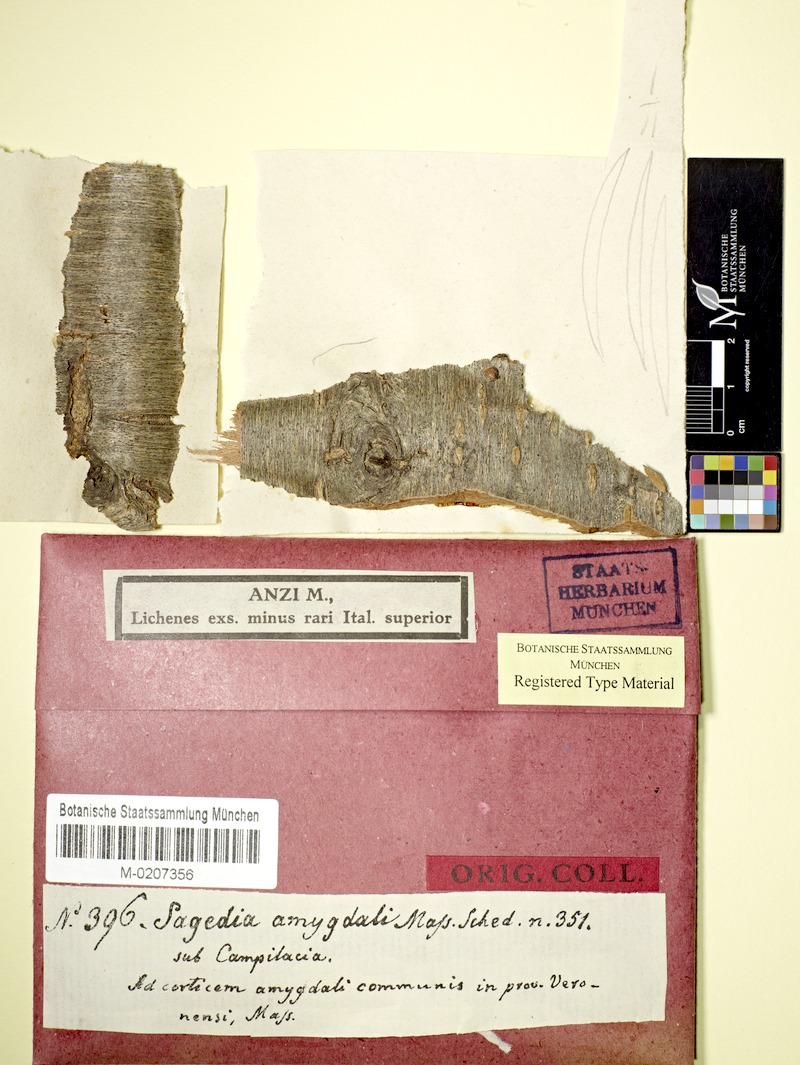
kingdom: Fungi
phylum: Ascomycota
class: Dothideomycetes
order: Pleosporales
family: Naetrocymbaceae
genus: Leptorhaphis
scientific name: Leptorhaphis amygdali
